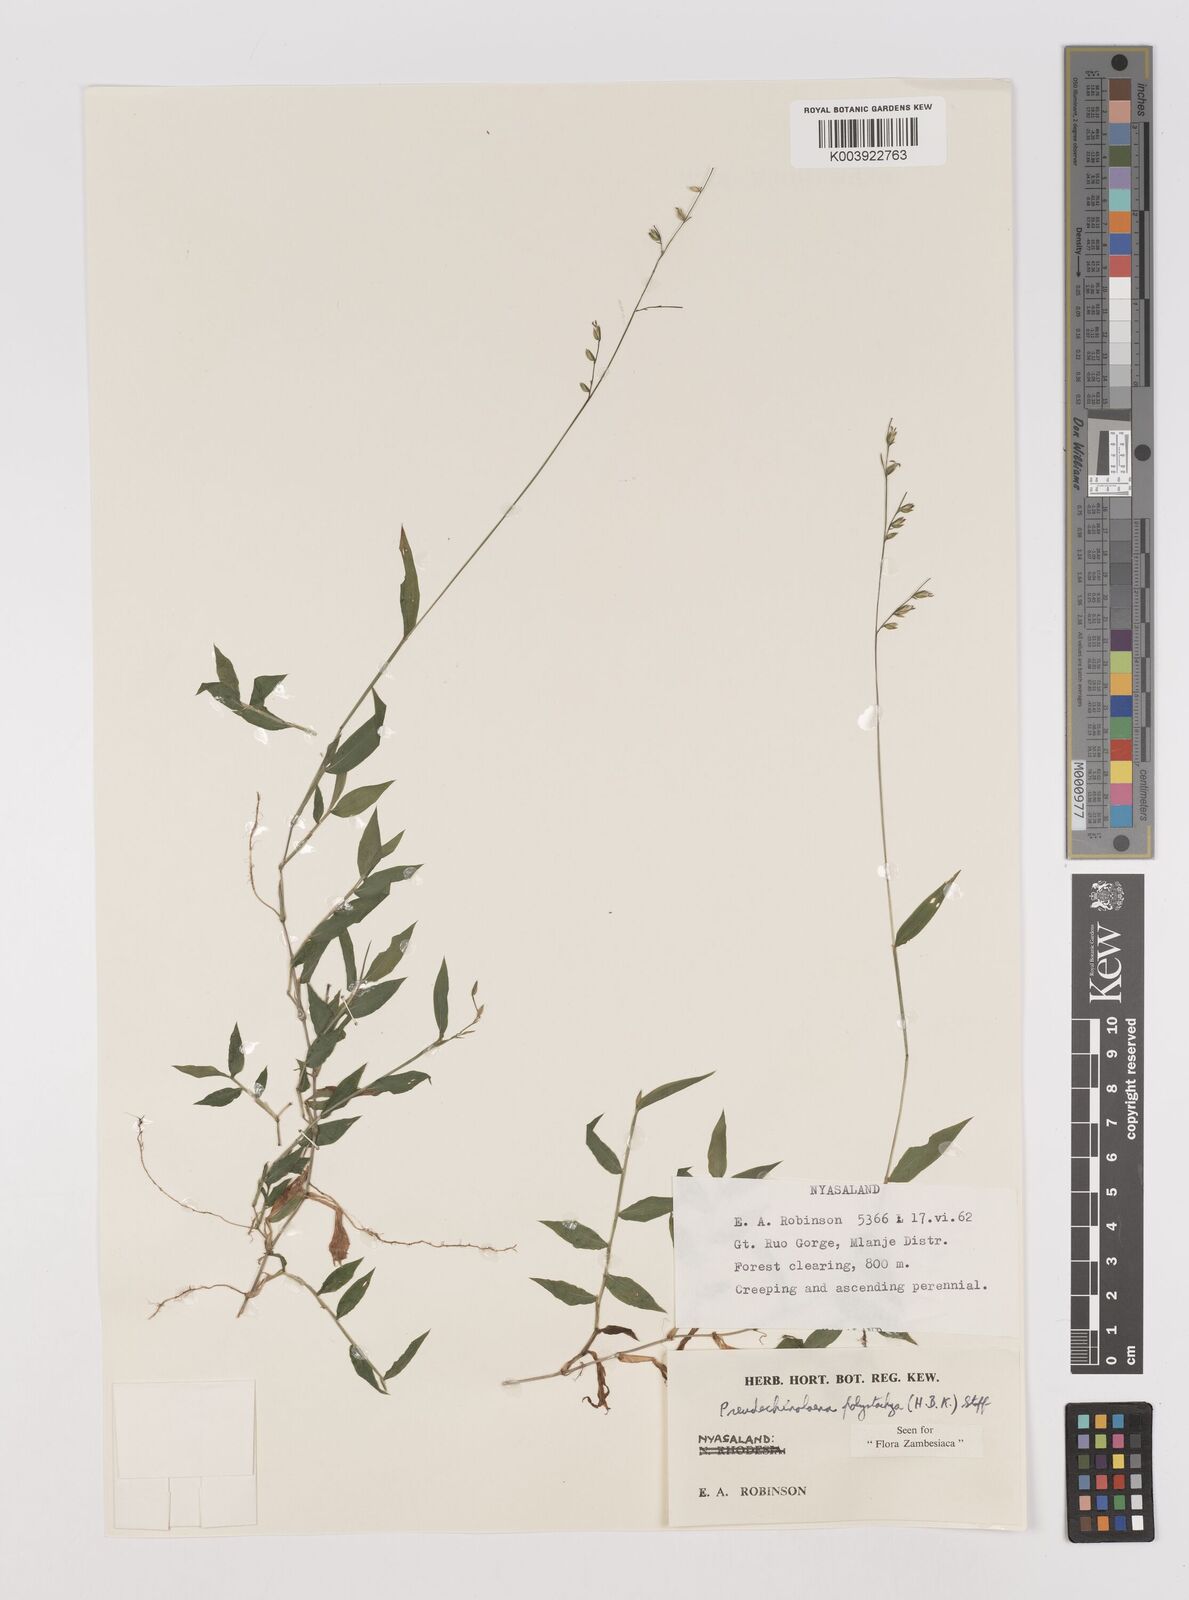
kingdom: Plantae
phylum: Tracheophyta
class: Liliopsida
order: Poales
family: Poaceae
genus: Pseudechinolaena
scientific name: Pseudechinolaena polystachya
